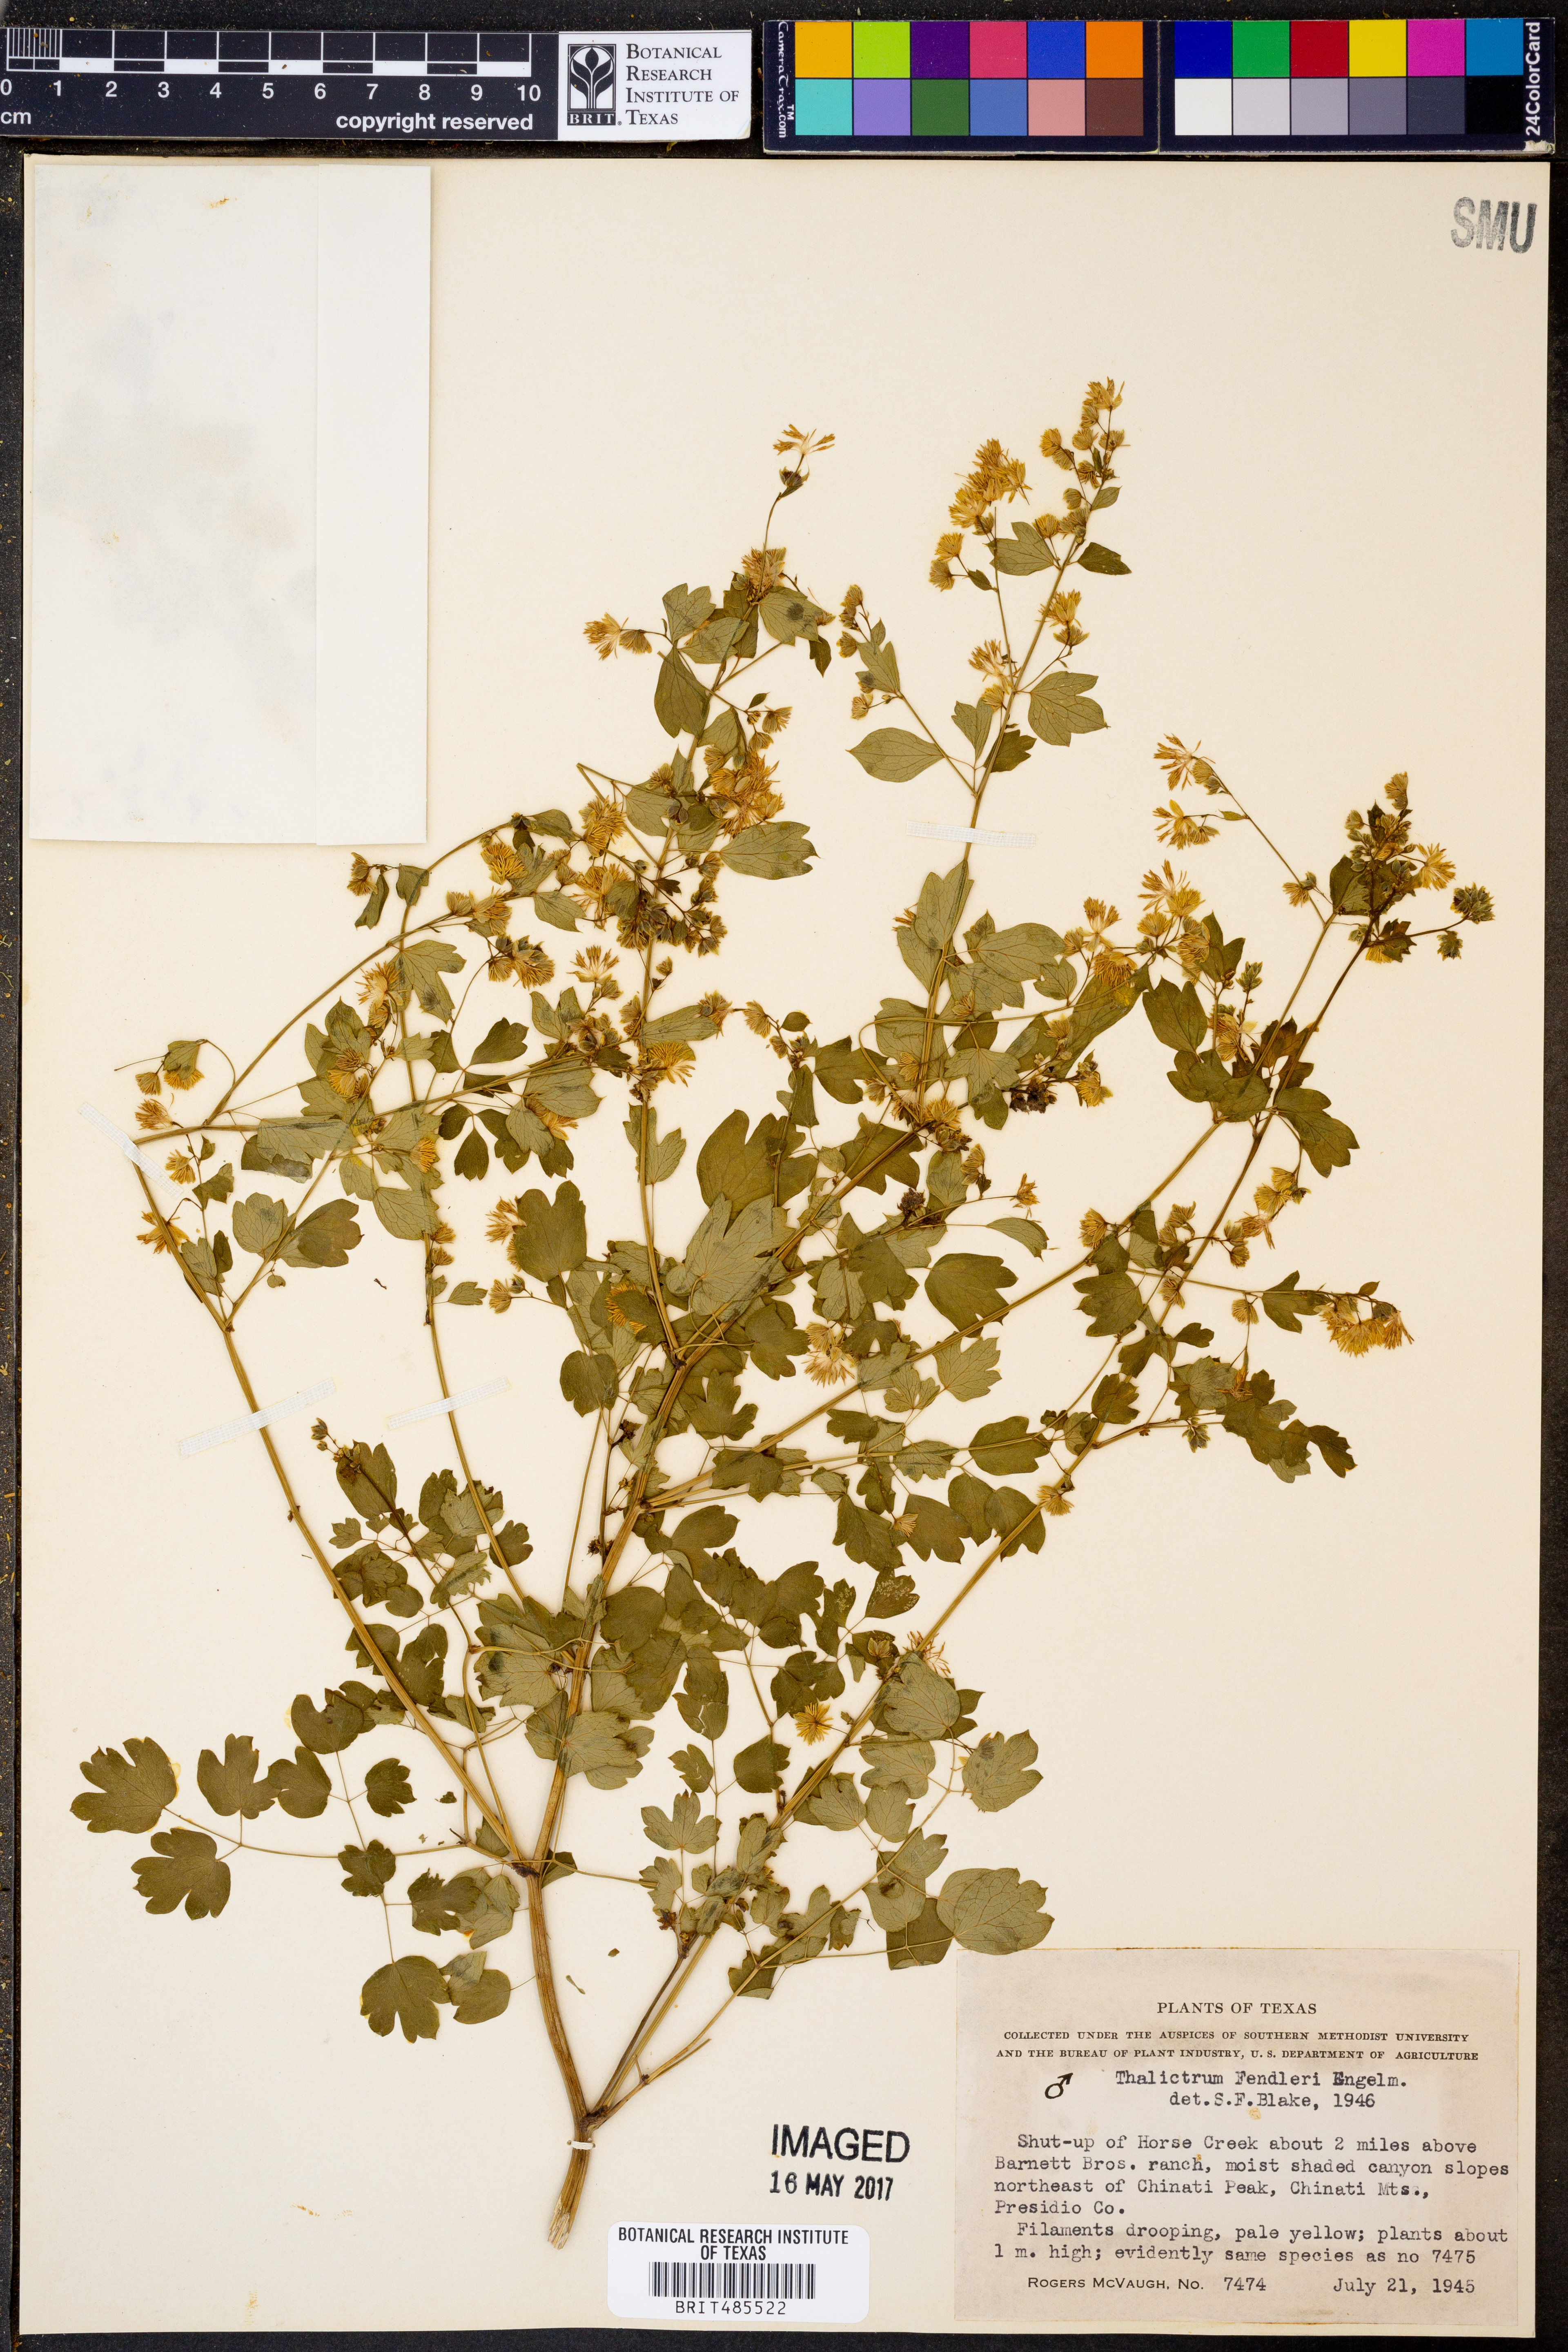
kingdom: Plantae
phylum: Tracheophyta
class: Magnoliopsida
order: Ranunculales
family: Ranunculaceae
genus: Thalictrum
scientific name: Thalictrum fendleri
